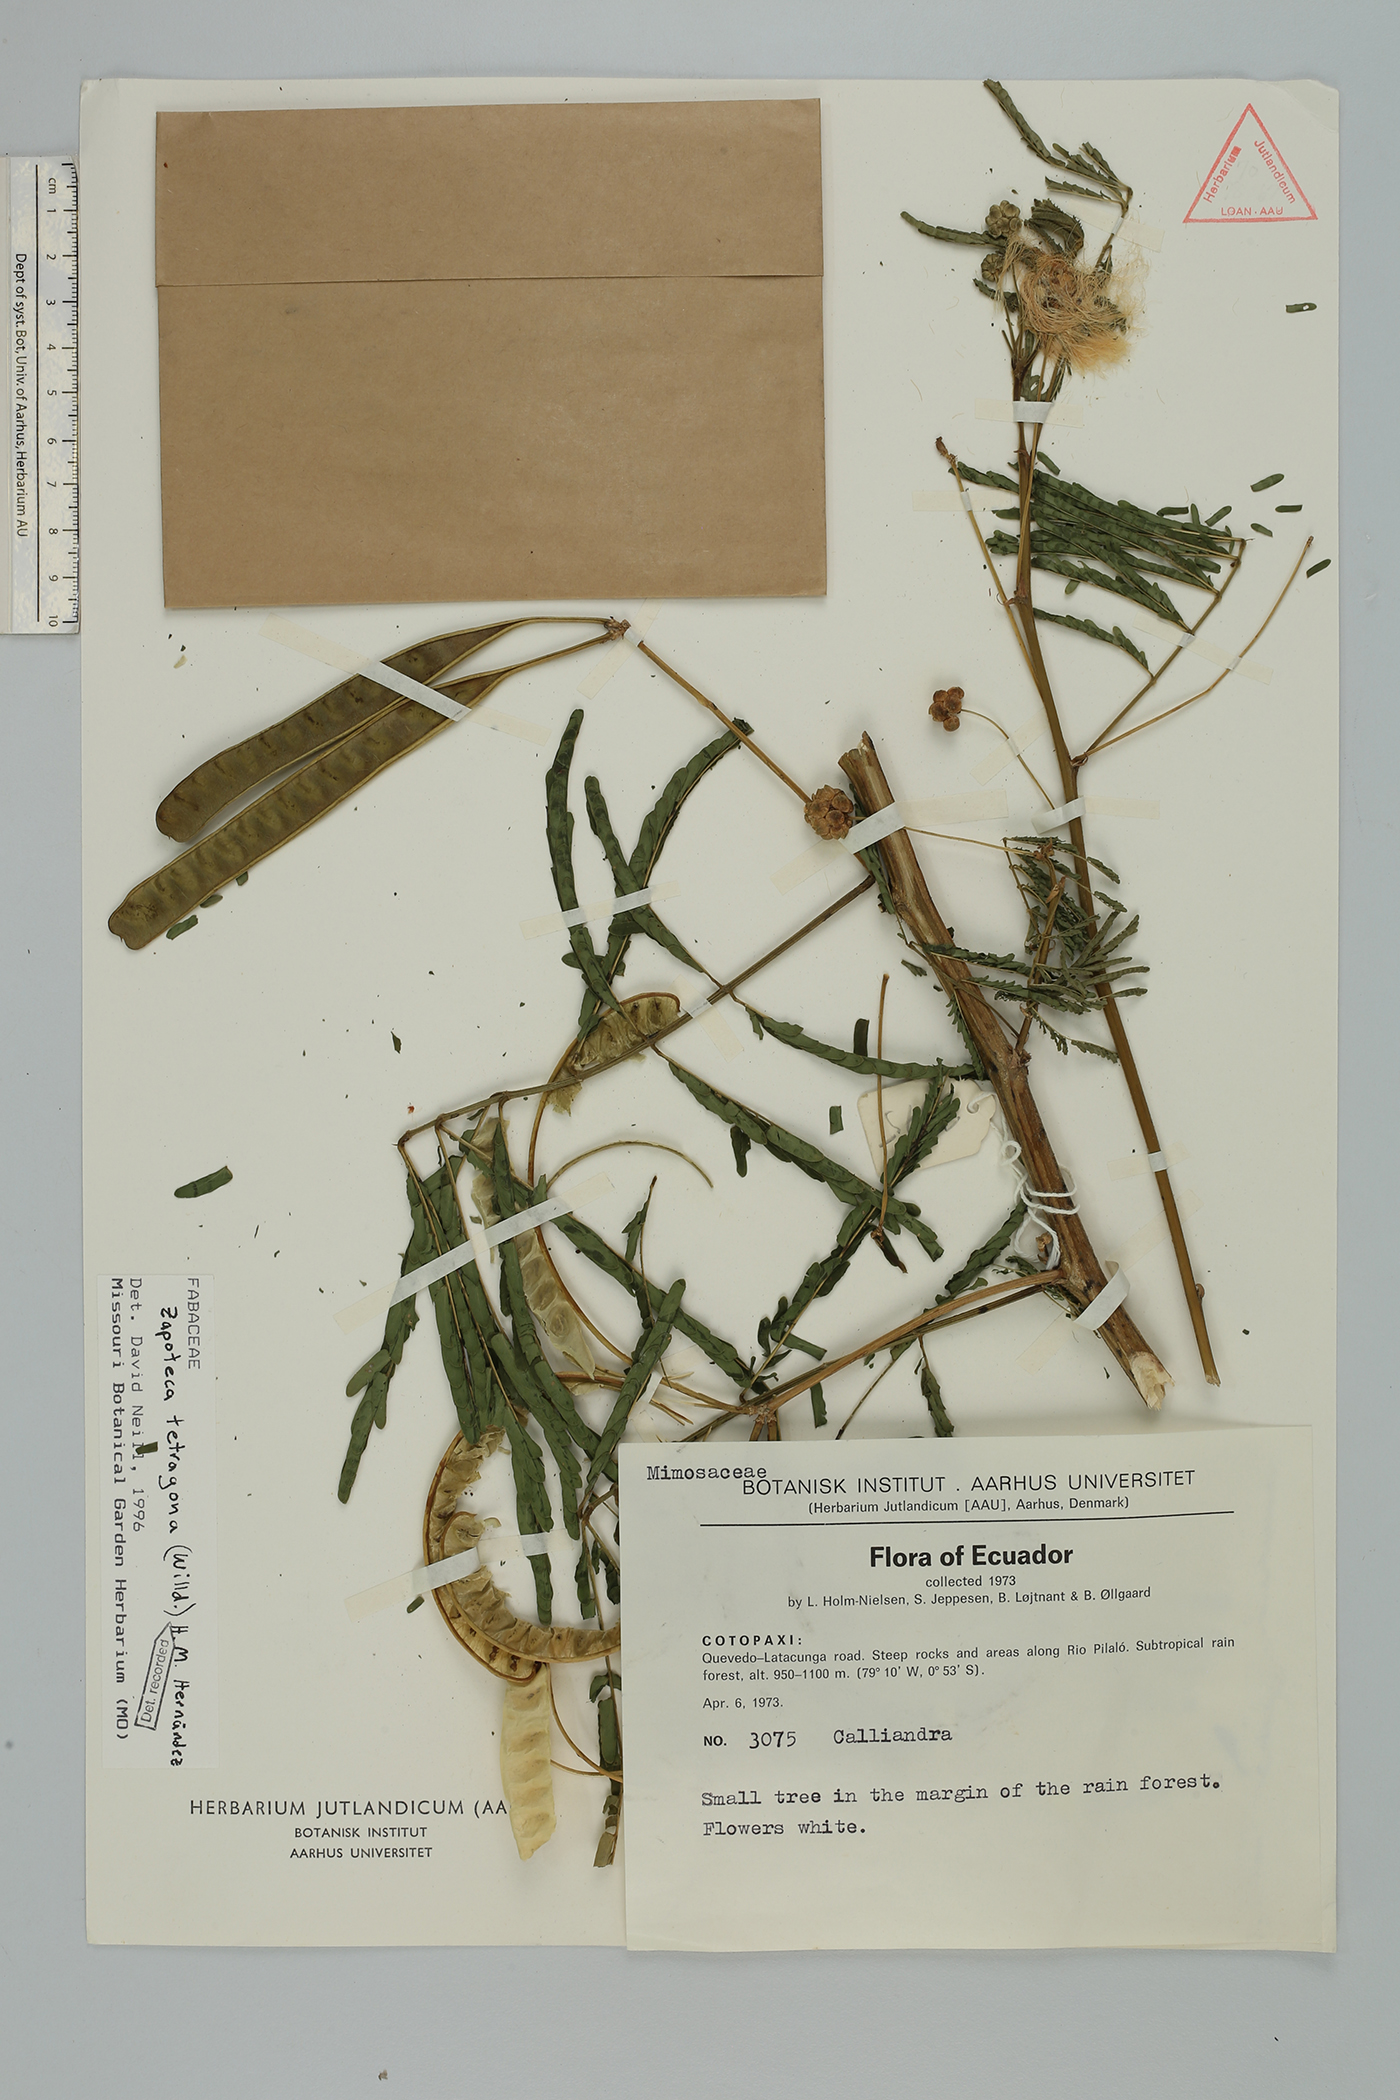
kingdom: Plantae
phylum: Tracheophyta
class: Magnoliopsida
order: Fabales
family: Fabaceae
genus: Zapoteca
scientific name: Zapoteca tetragona
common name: White calliandra
